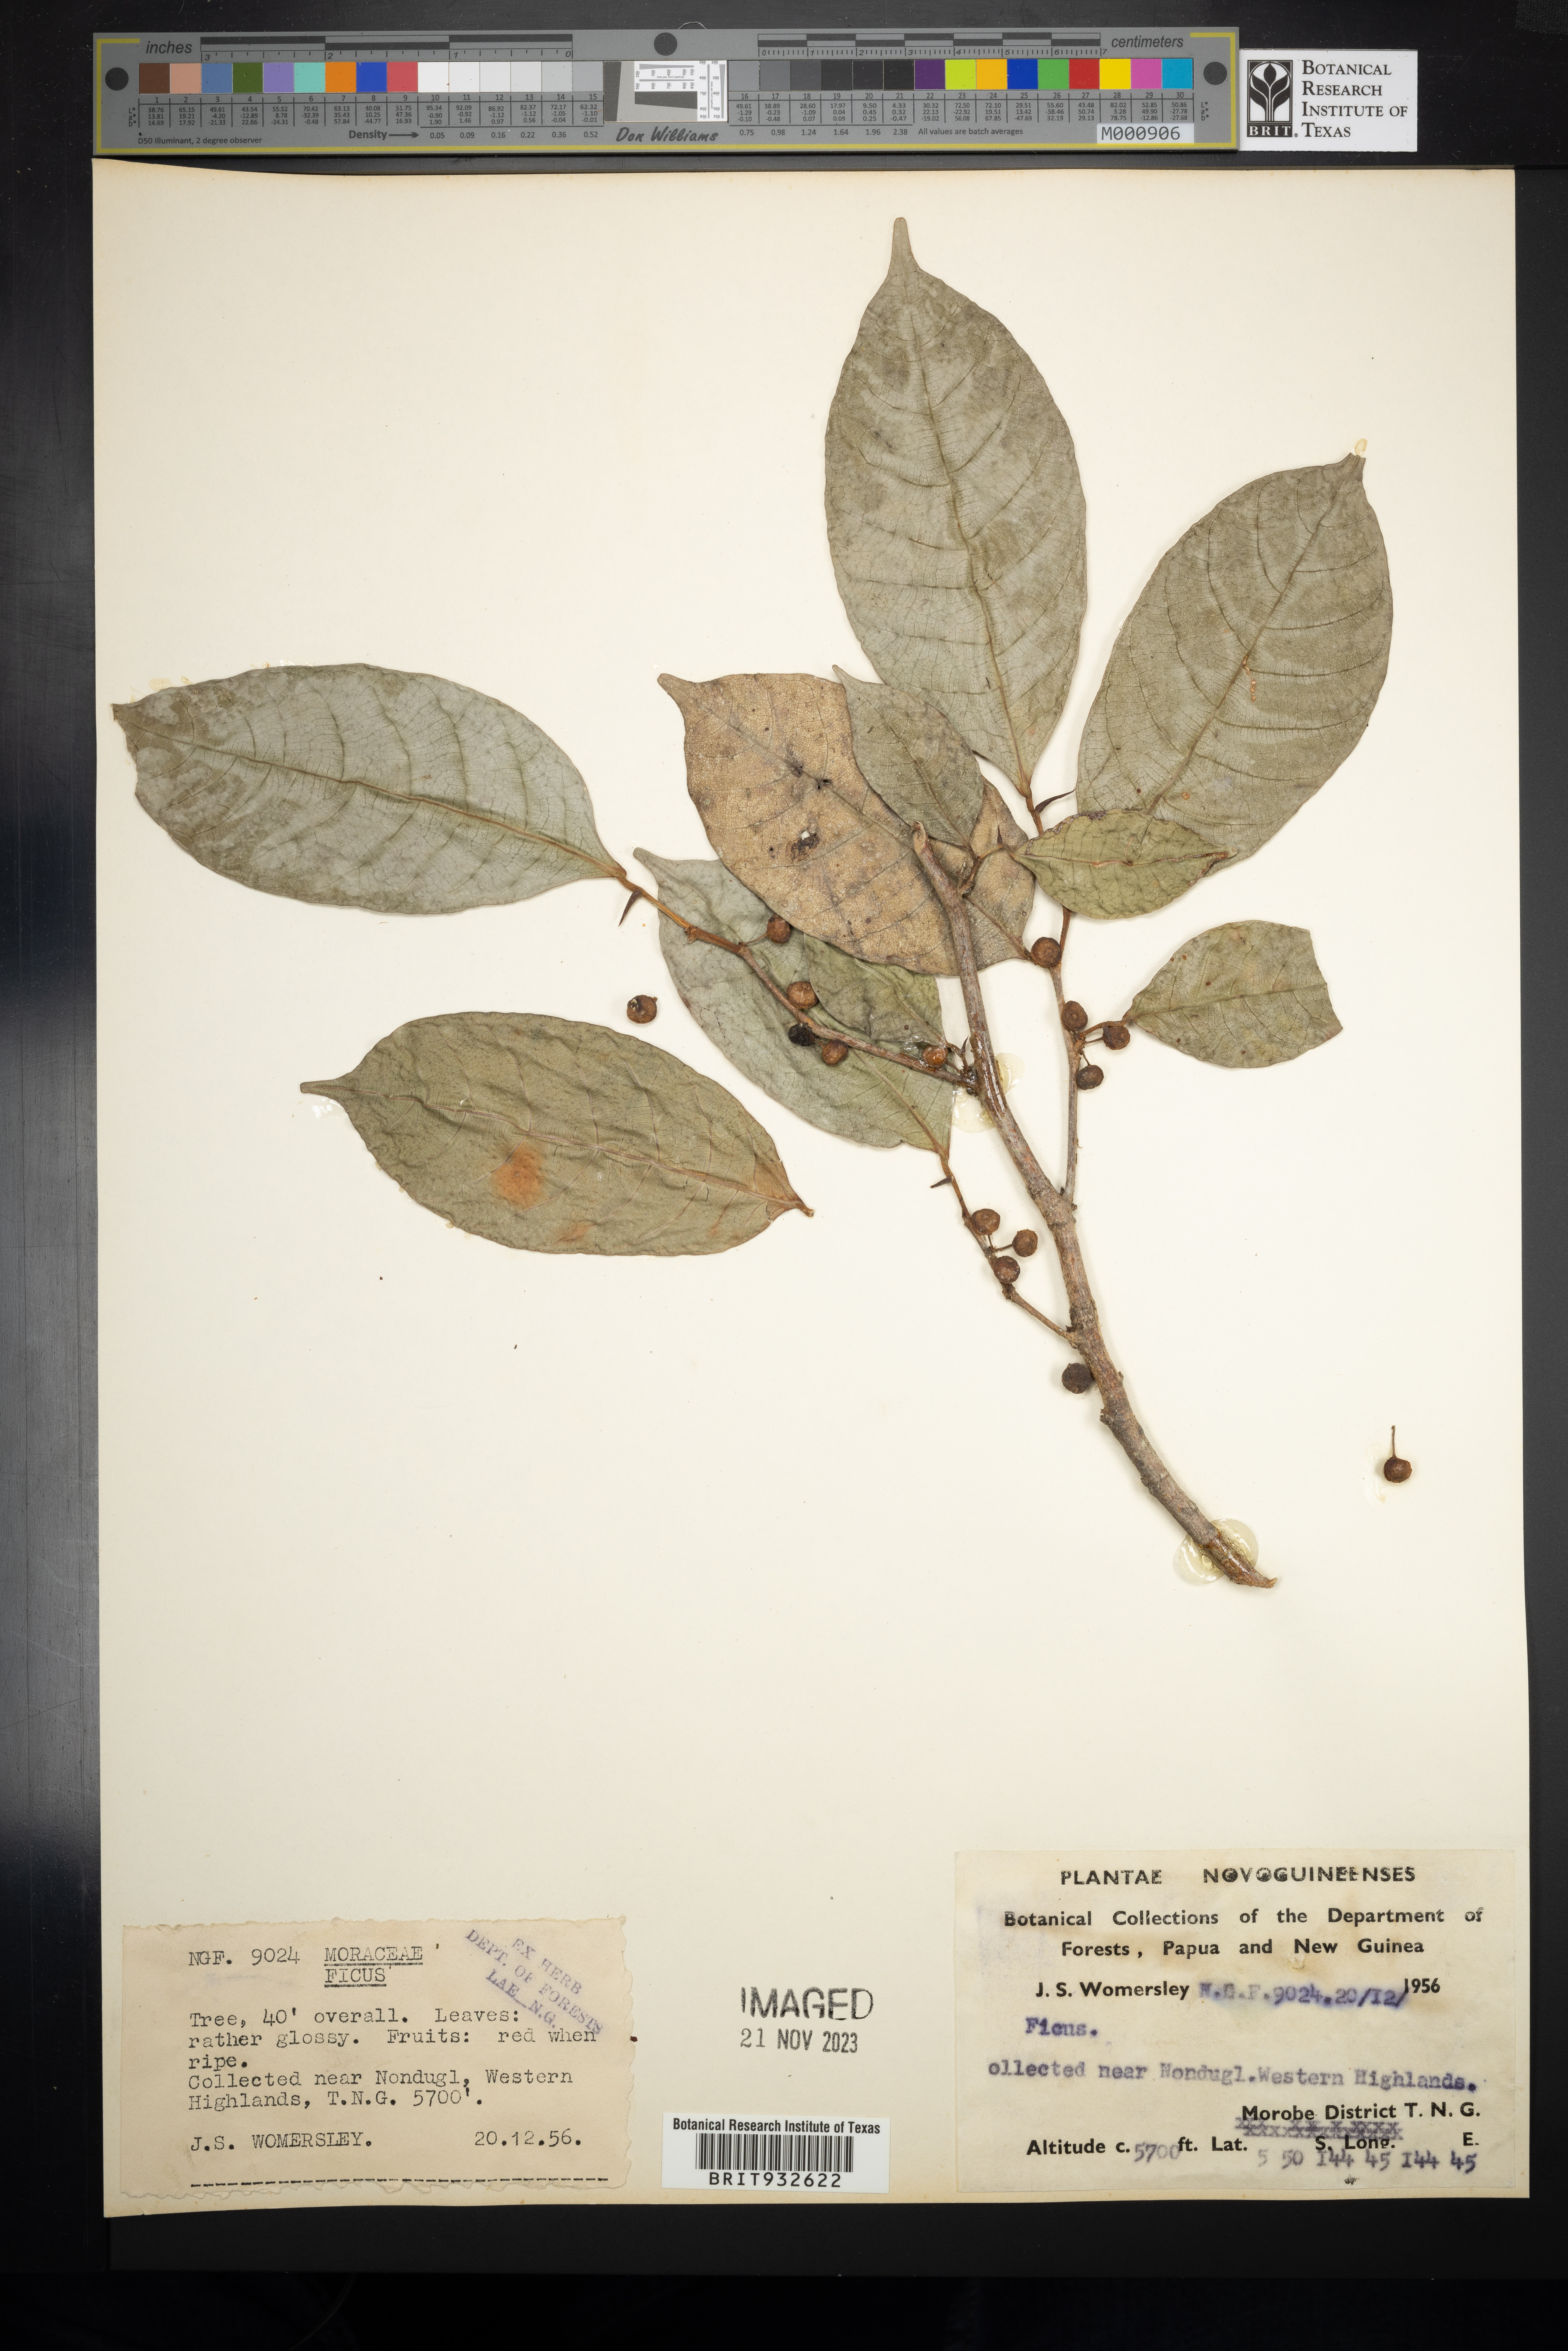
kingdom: Plantae
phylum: Tracheophyta
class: Magnoliopsida
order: Rosales
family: Moraceae
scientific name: Moraceae
